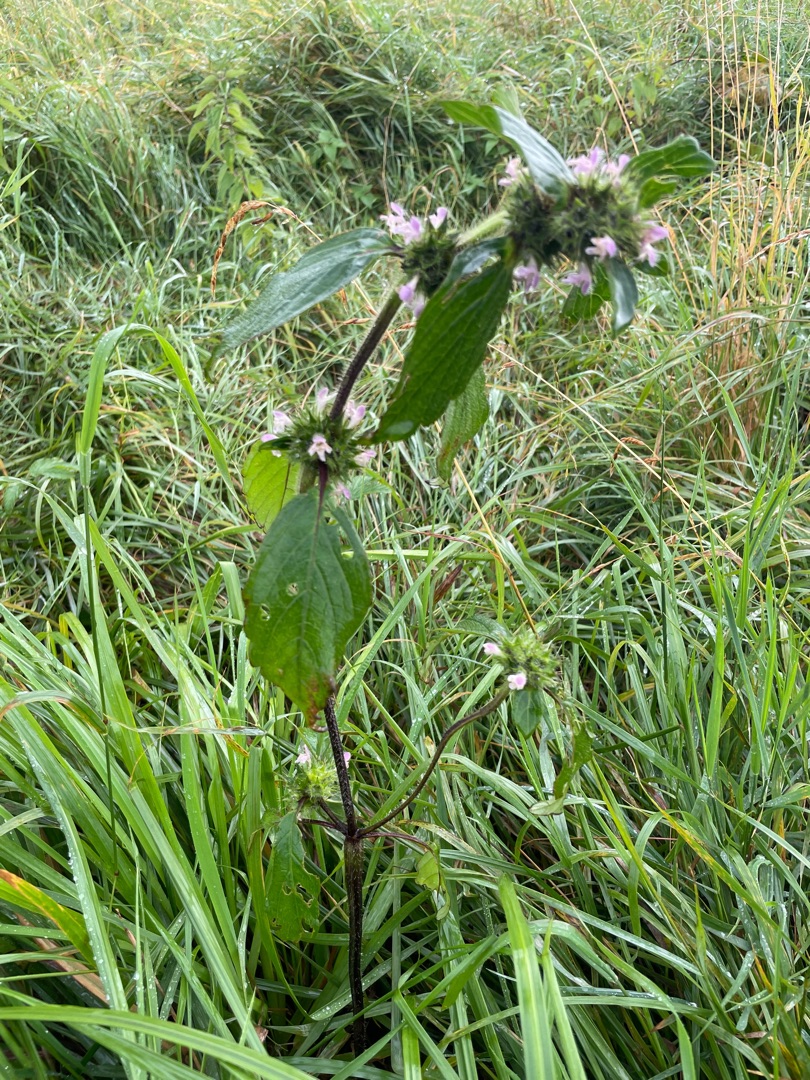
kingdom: Plantae
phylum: Tracheophyta
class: Magnoliopsida
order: Lamiales
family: Lamiaceae
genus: Galeopsis
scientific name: Galeopsis
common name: Hanekroslægten
